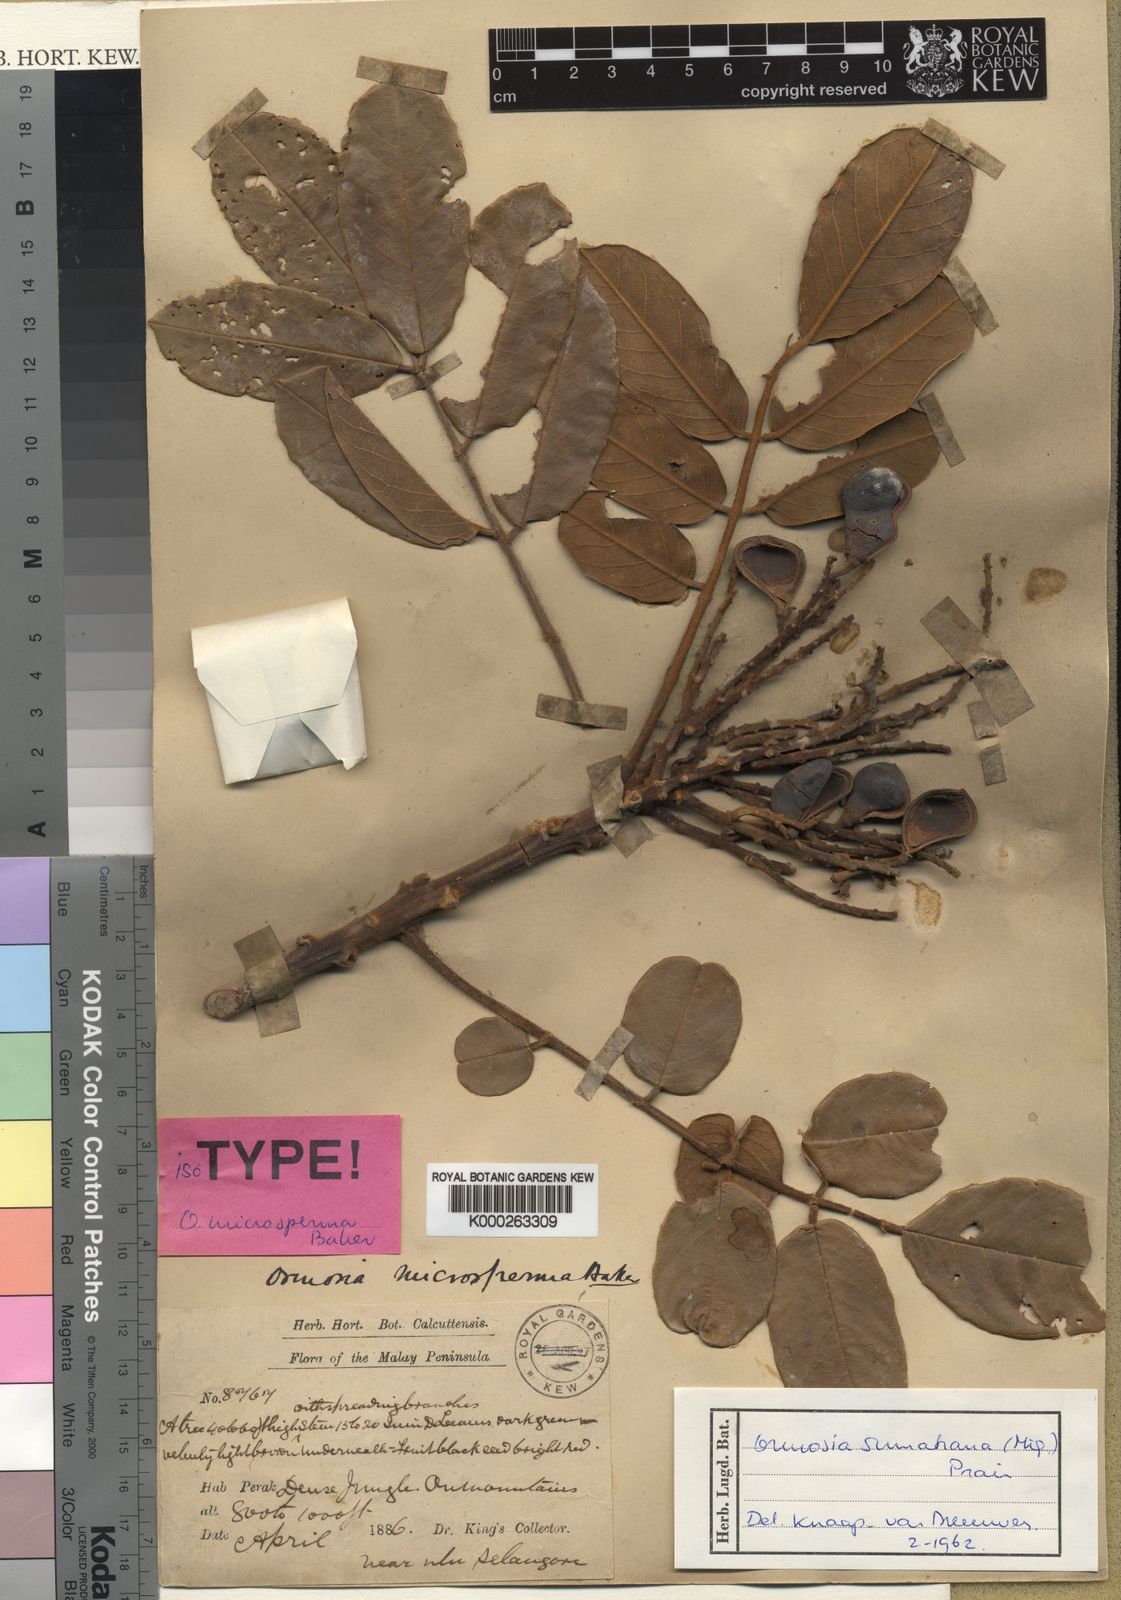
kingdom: Plantae
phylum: Tracheophyta
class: Magnoliopsida
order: Fabales
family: Fabaceae
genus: Ormosia
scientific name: Ormosia sumatrana
